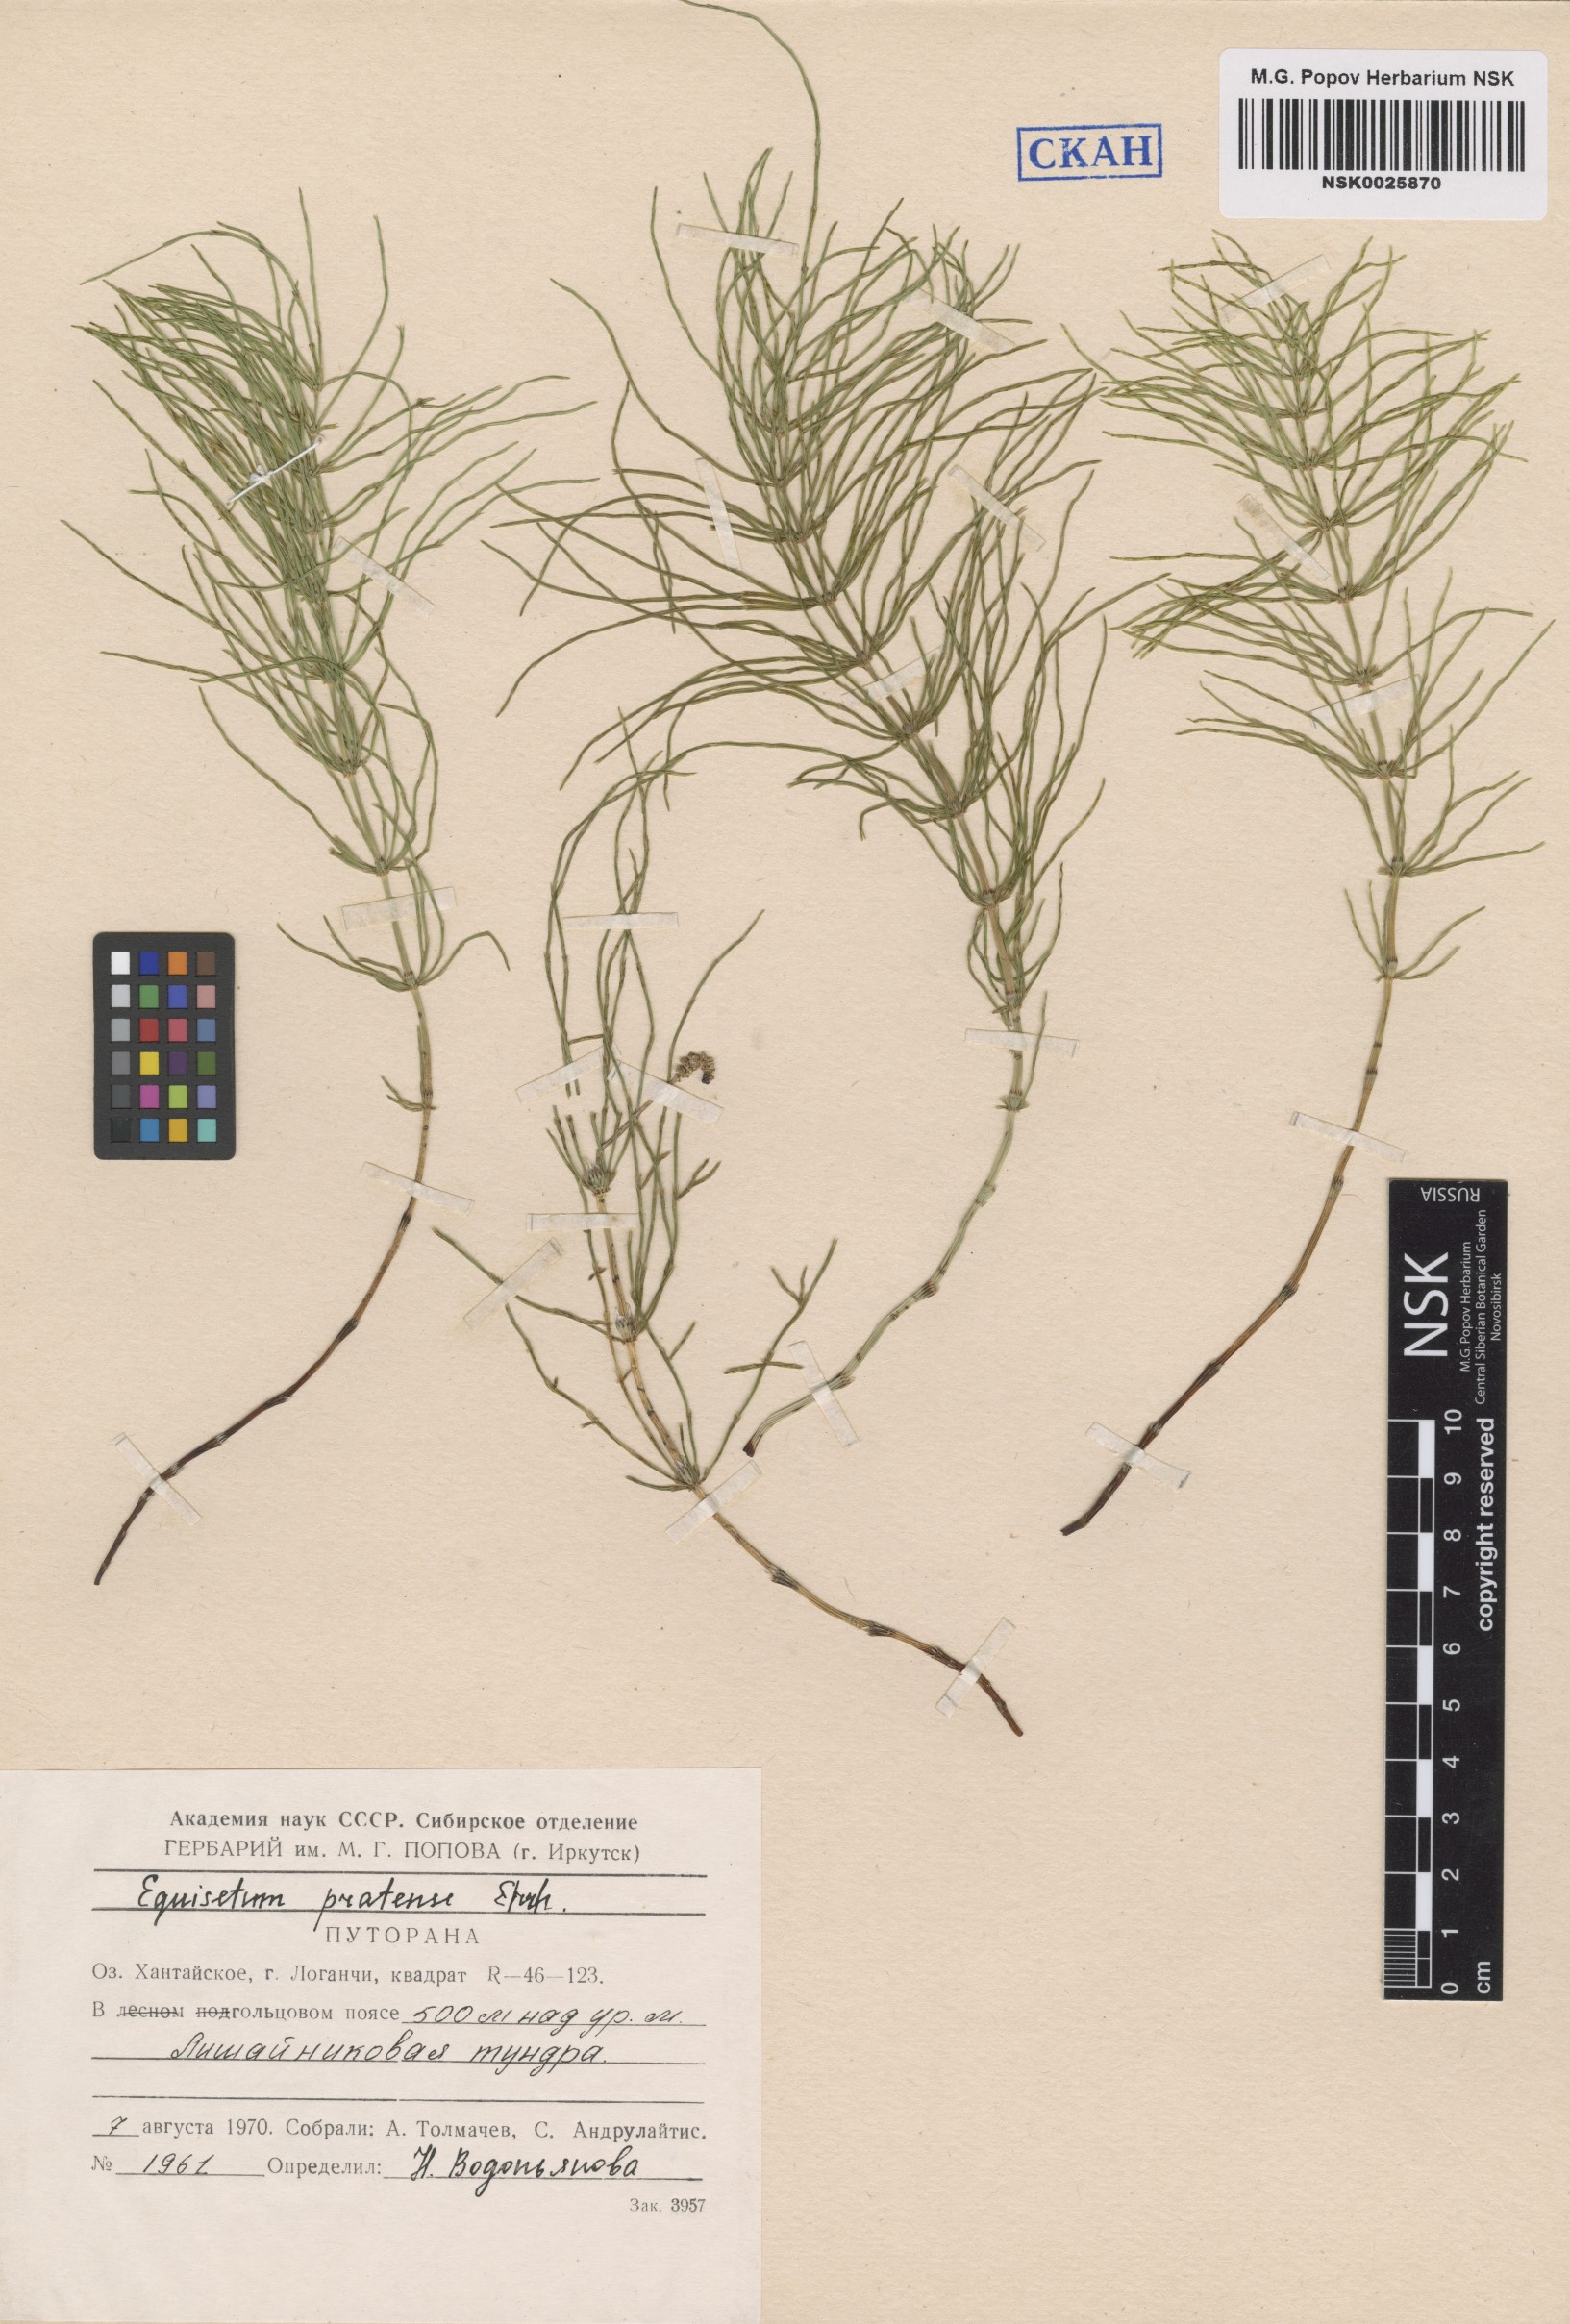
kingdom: Plantae
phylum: Tracheophyta
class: Polypodiopsida
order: Equisetales
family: Equisetaceae
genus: Equisetum
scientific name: Equisetum pratense
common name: Meadow horsetail
